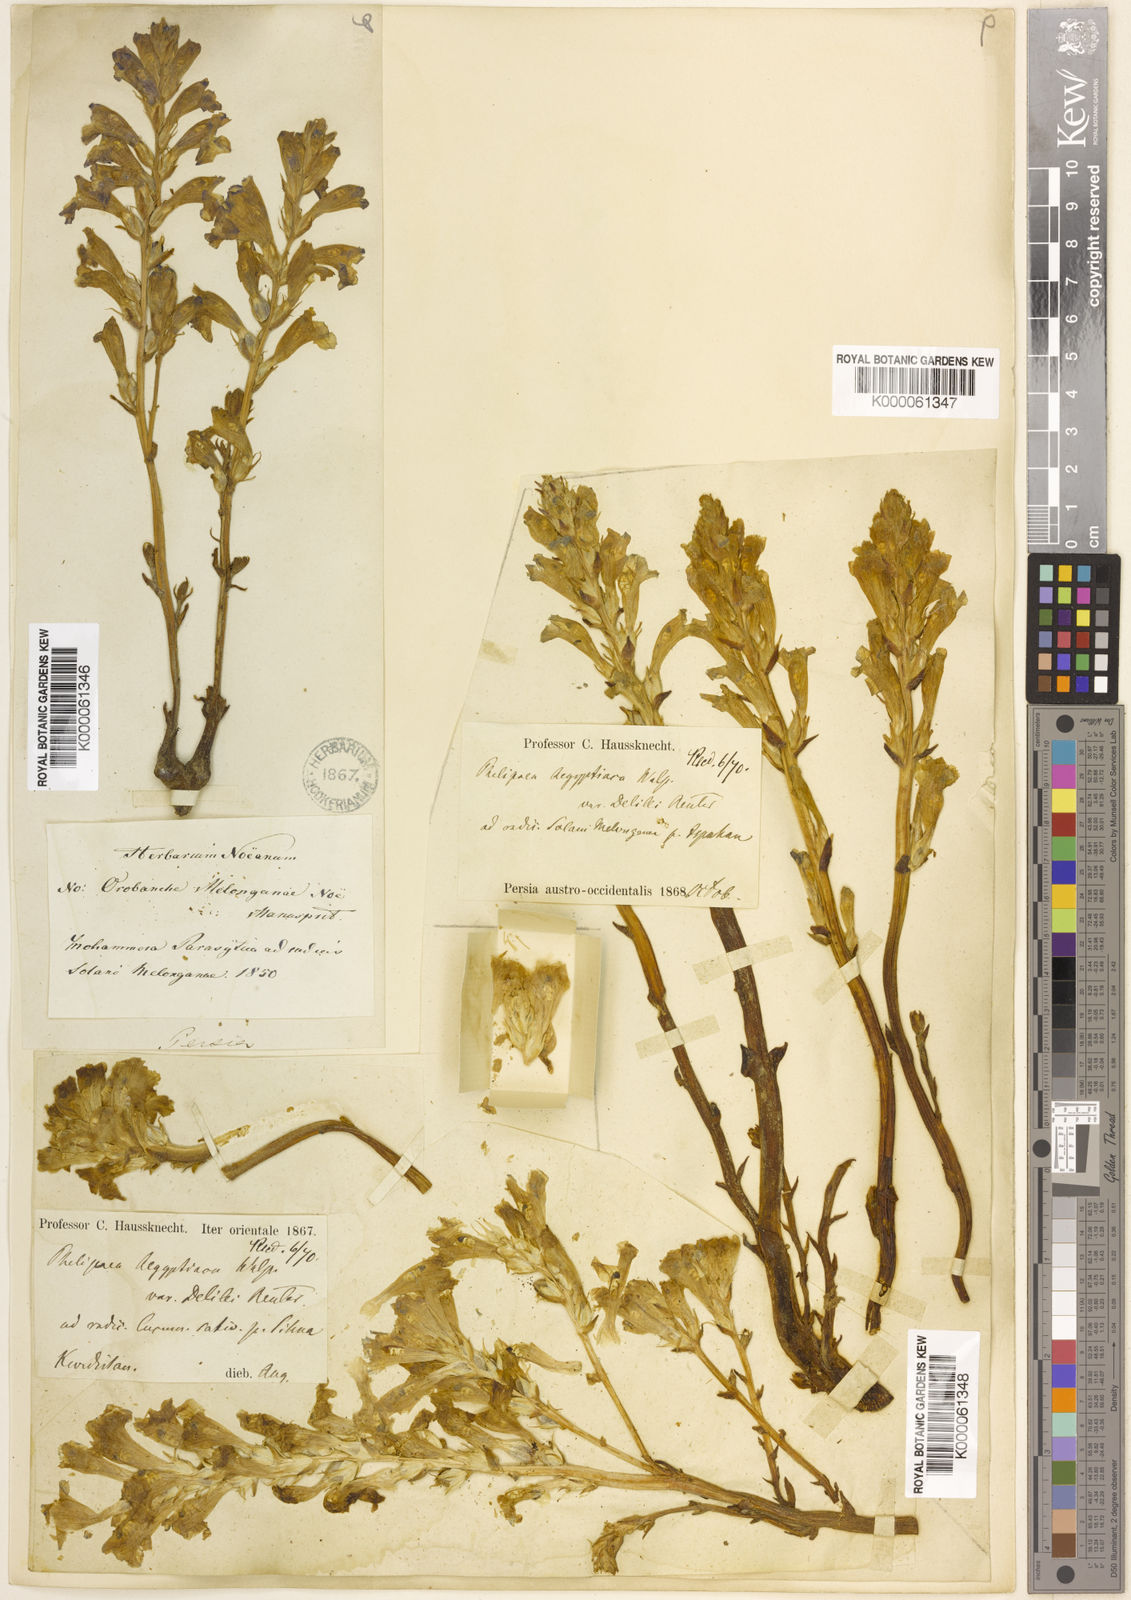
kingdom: Plantae
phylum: Tracheophyta
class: Magnoliopsida
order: Lamiales
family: Orobanchaceae
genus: Phelipanche
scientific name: Phelipanche aegyptiaca
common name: Egyptian broomrape
